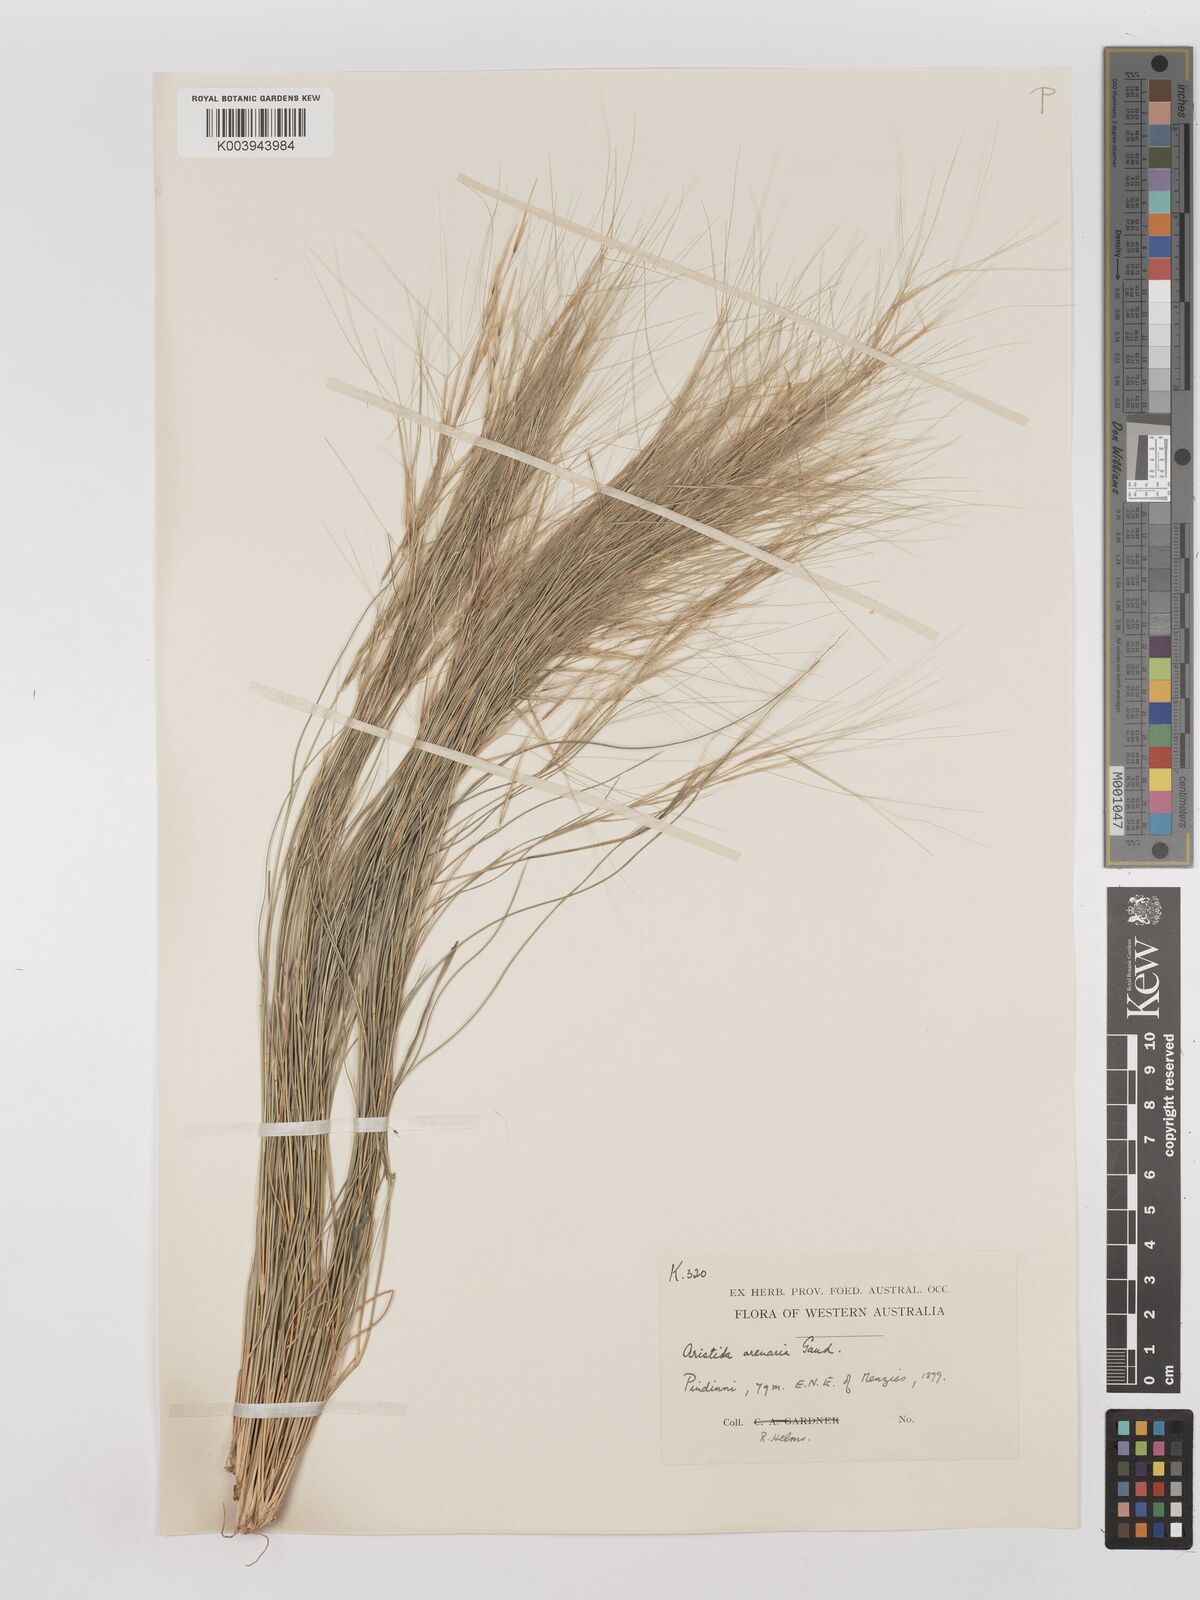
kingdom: Plantae
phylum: Tracheophyta
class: Liliopsida
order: Poales
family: Poaceae
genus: Aristida
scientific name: Aristida contorta
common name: Bunch kerosene grass
